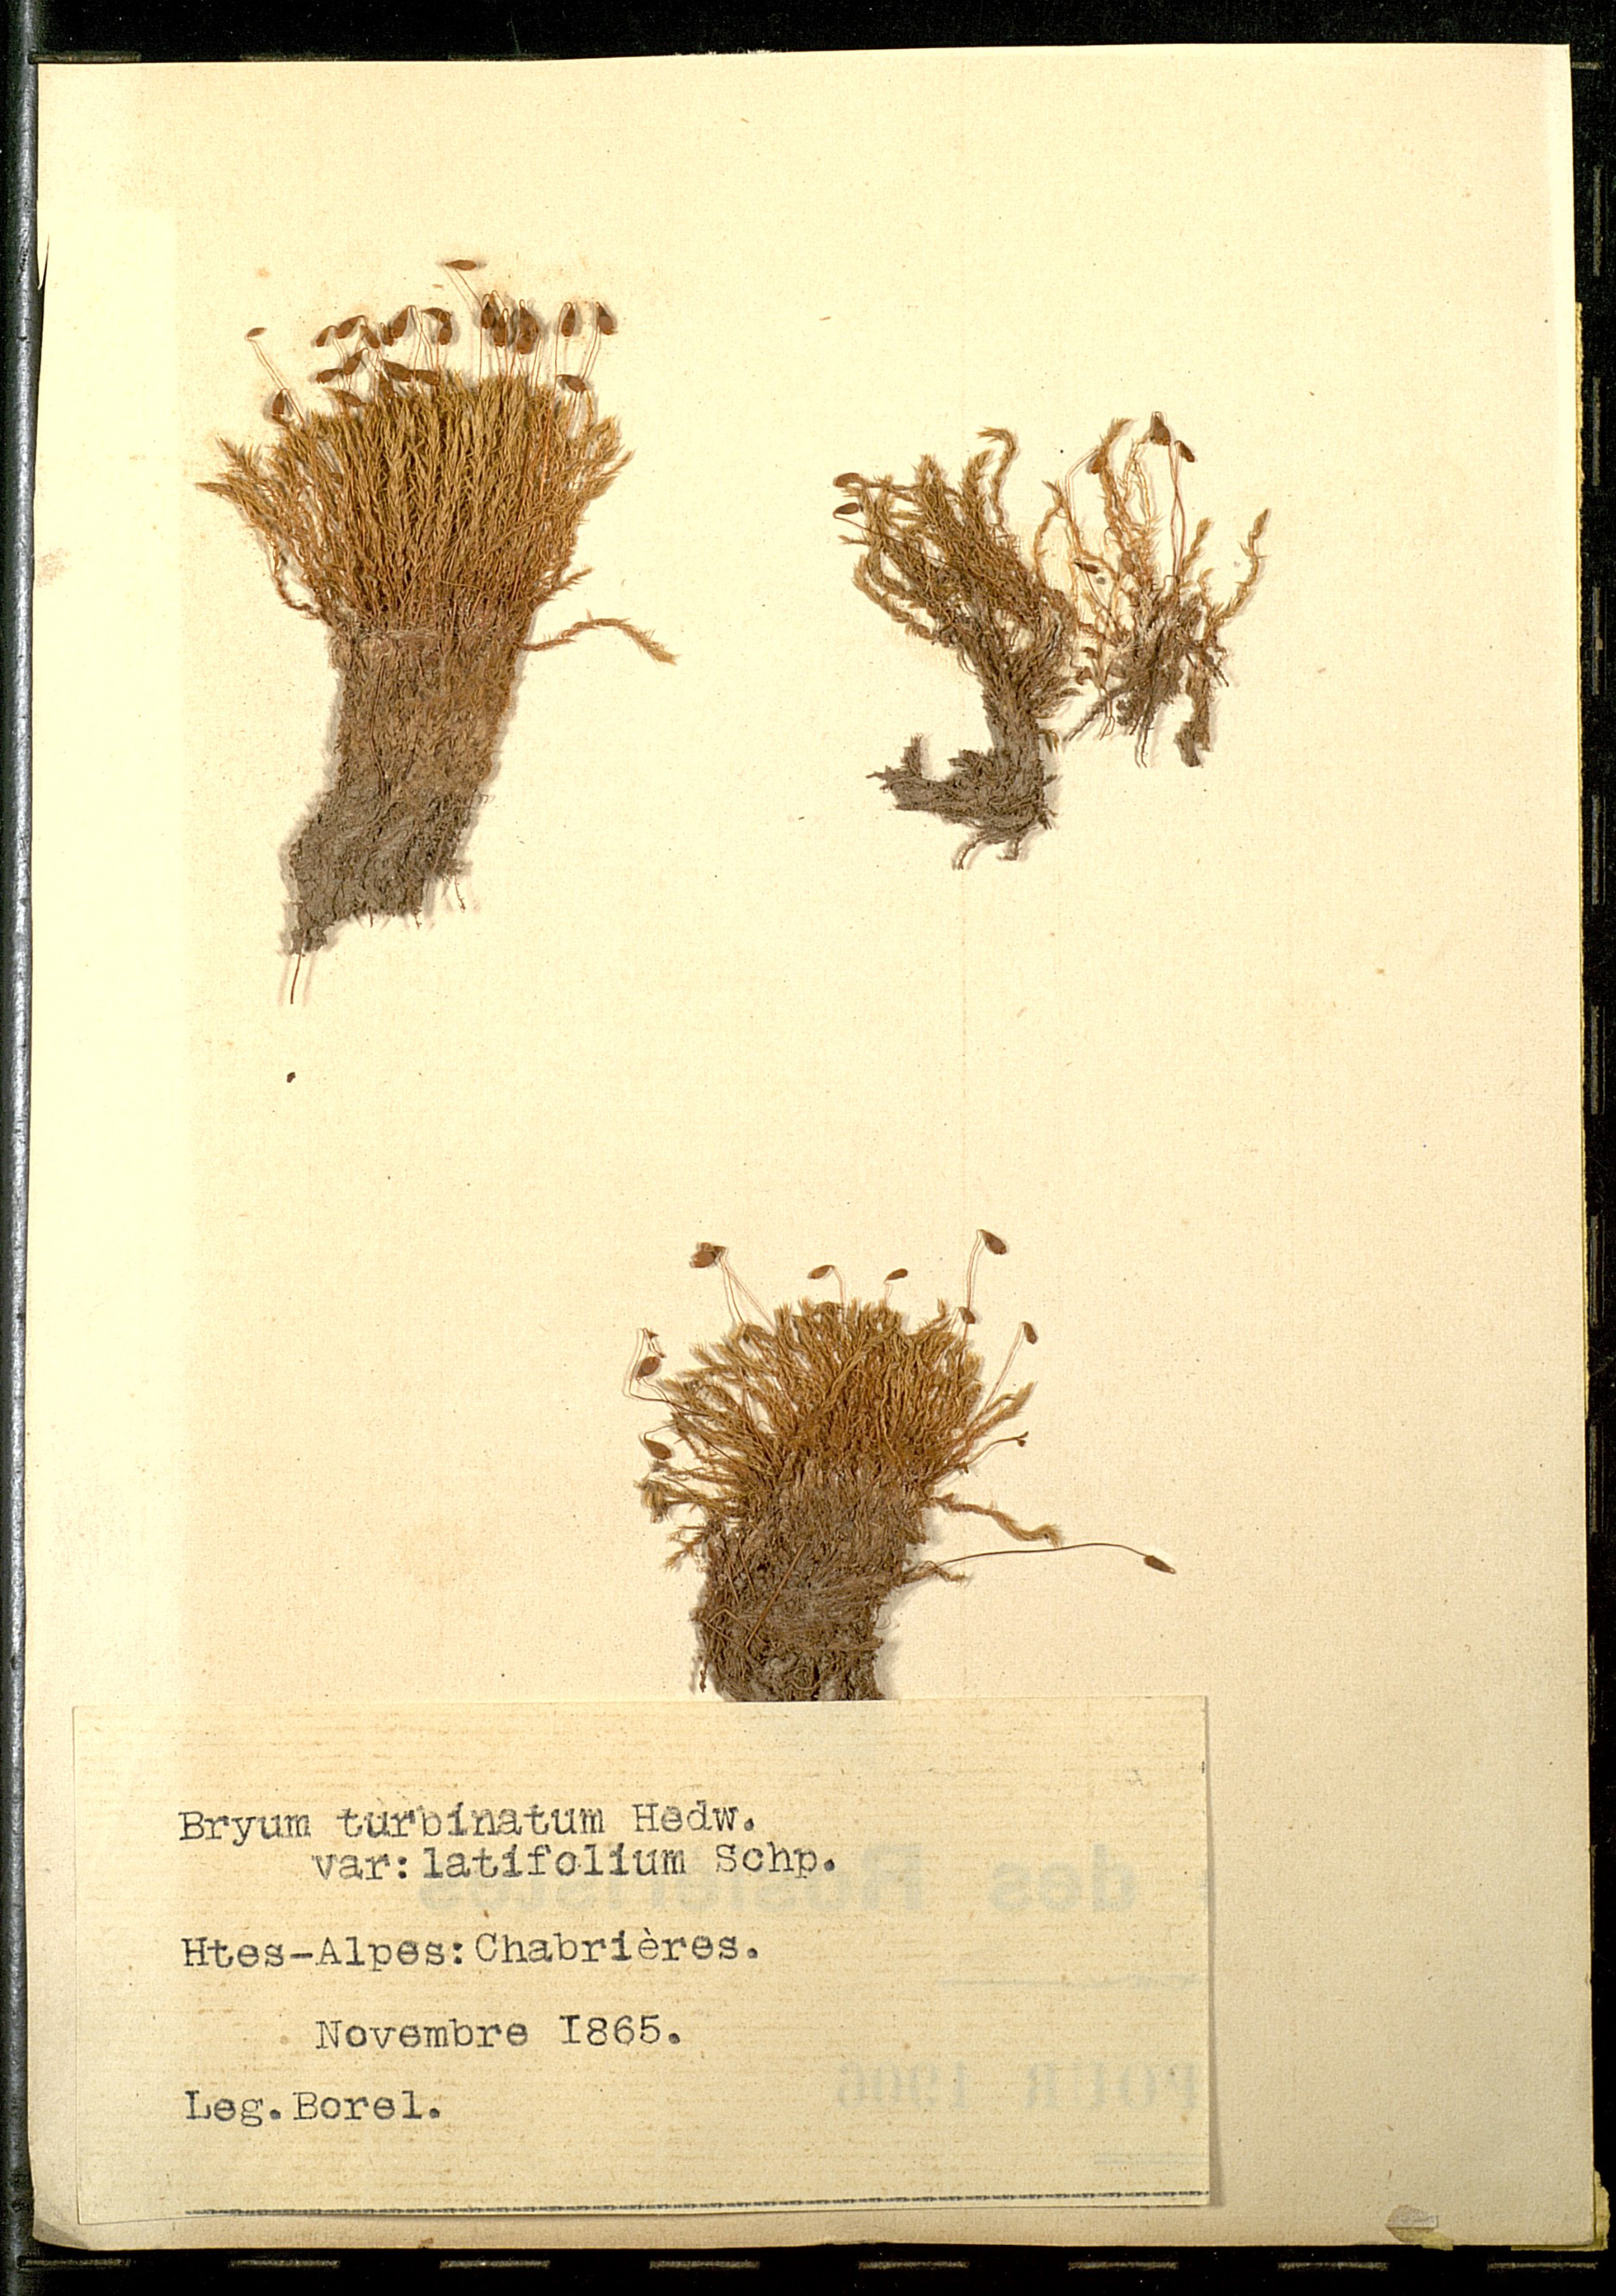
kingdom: Plantae
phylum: Bryophyta
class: Bryopsida
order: Bryales
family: Bryaceae
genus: Ptychostomum
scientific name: Ptychostomum turbinatum
